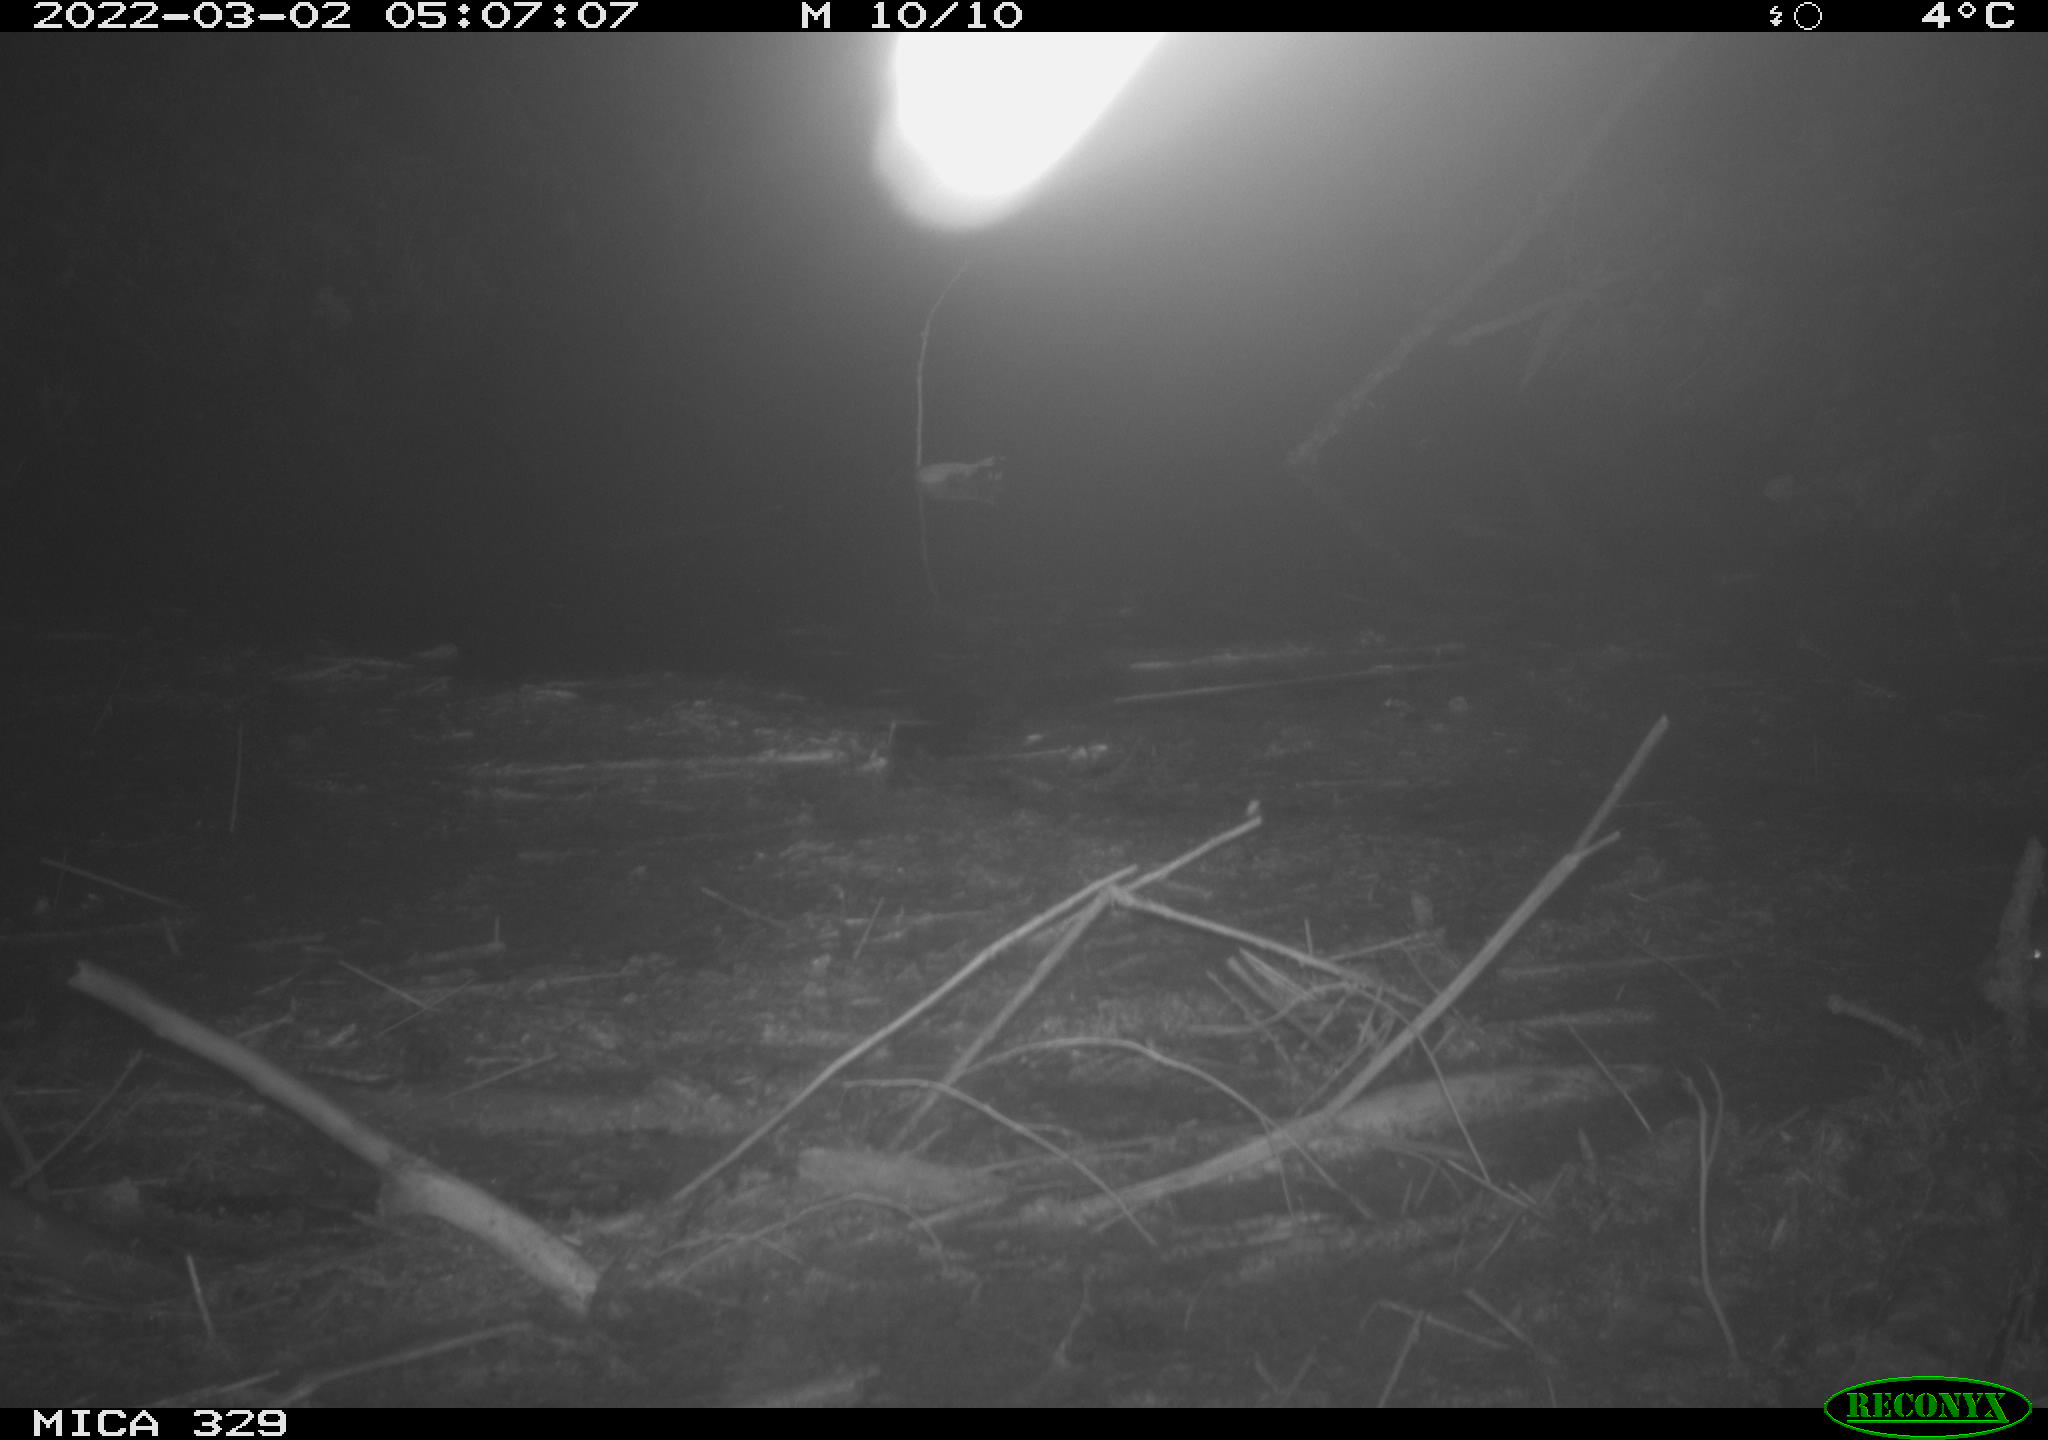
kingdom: Animalia
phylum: Chordata
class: Mammalia
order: Rodentia
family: Cricetidae
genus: Ondatra
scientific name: Ondatra zibethicus
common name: Muskrat
